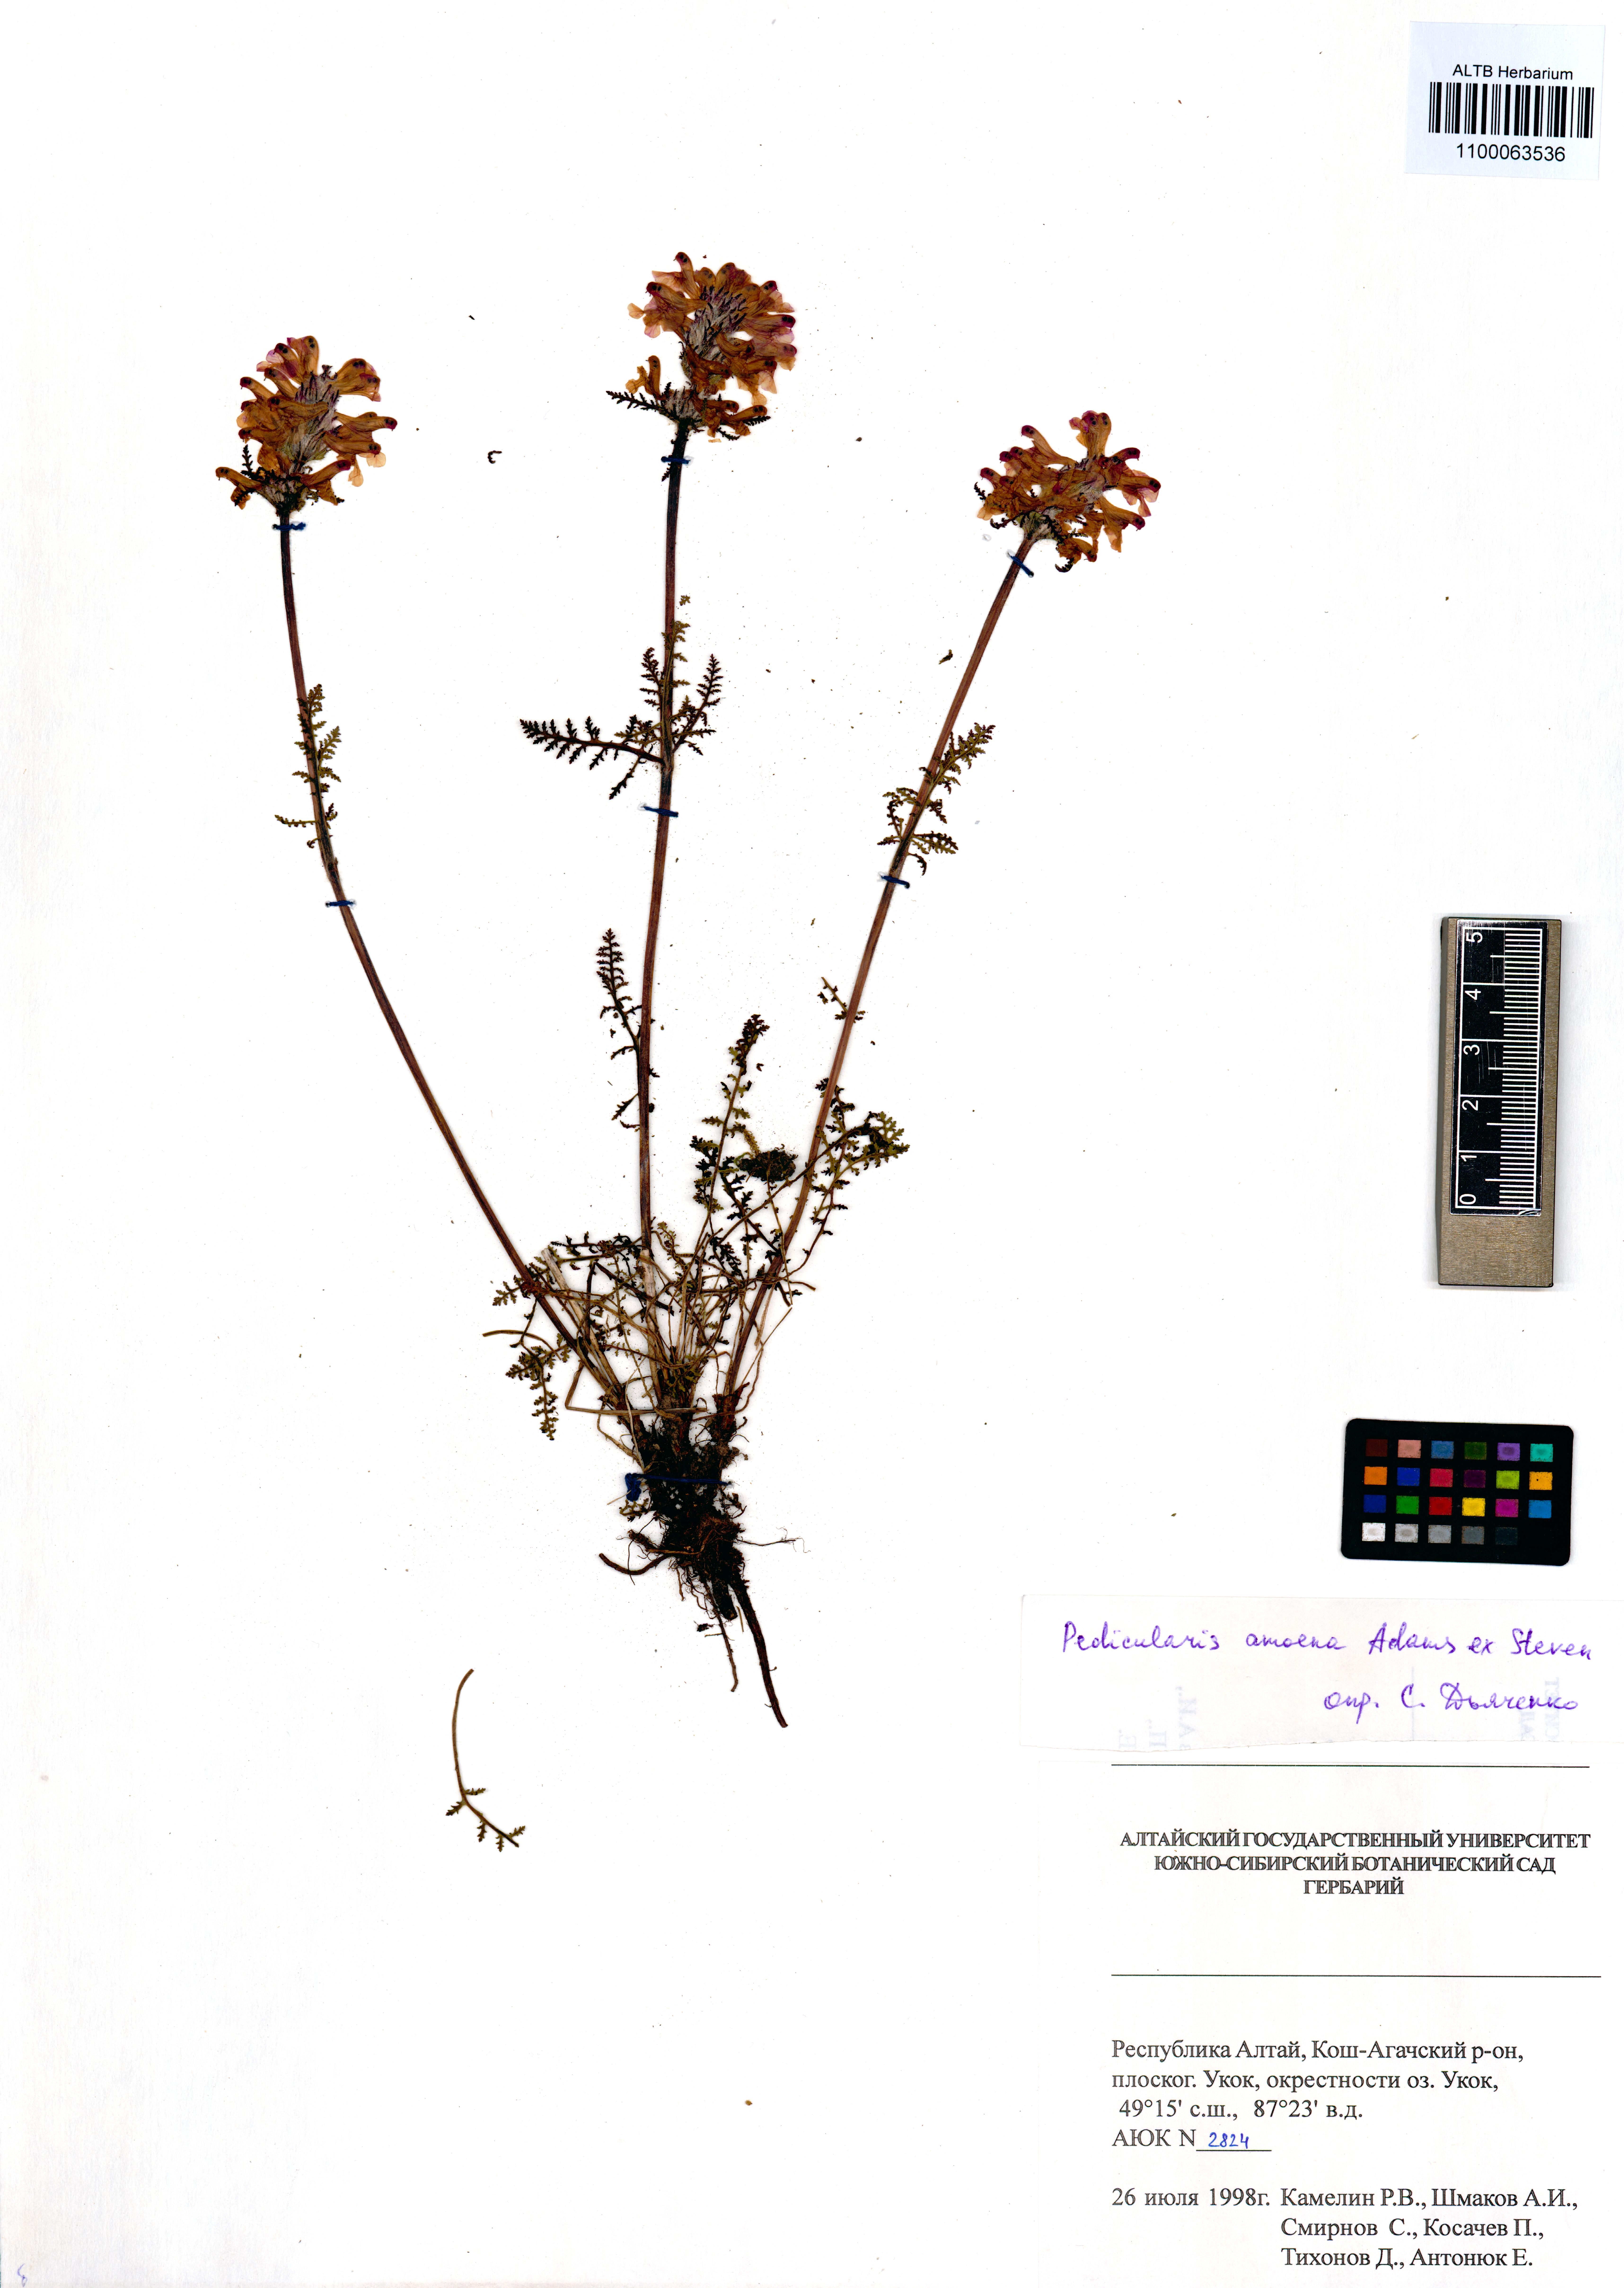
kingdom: Plantae
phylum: Tracheophyta
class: Magnoliopsida
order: Lamiales
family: Orobanchaceae
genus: Pedicularis
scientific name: Pedicularis amoena
